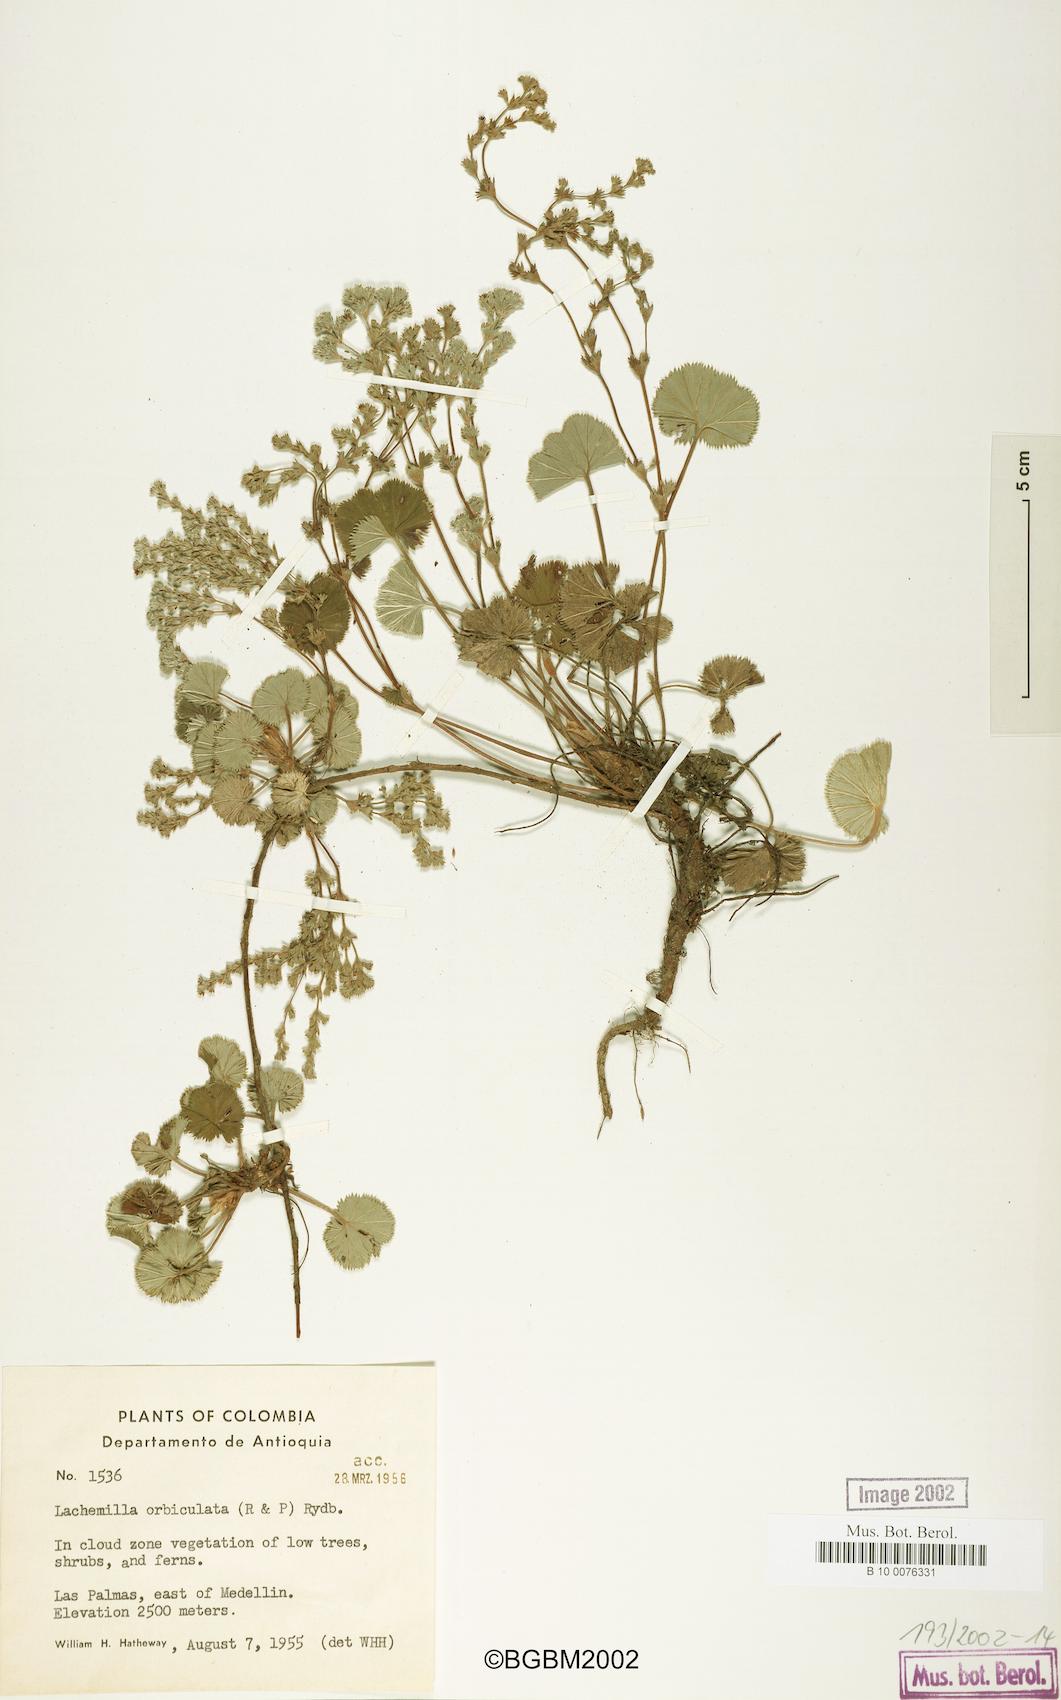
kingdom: Plantae
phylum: Tracheophyta
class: Magnoliopsida
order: Rosales
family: Rosaceae
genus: Lachemilla
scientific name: Lachemilla orbiculata
